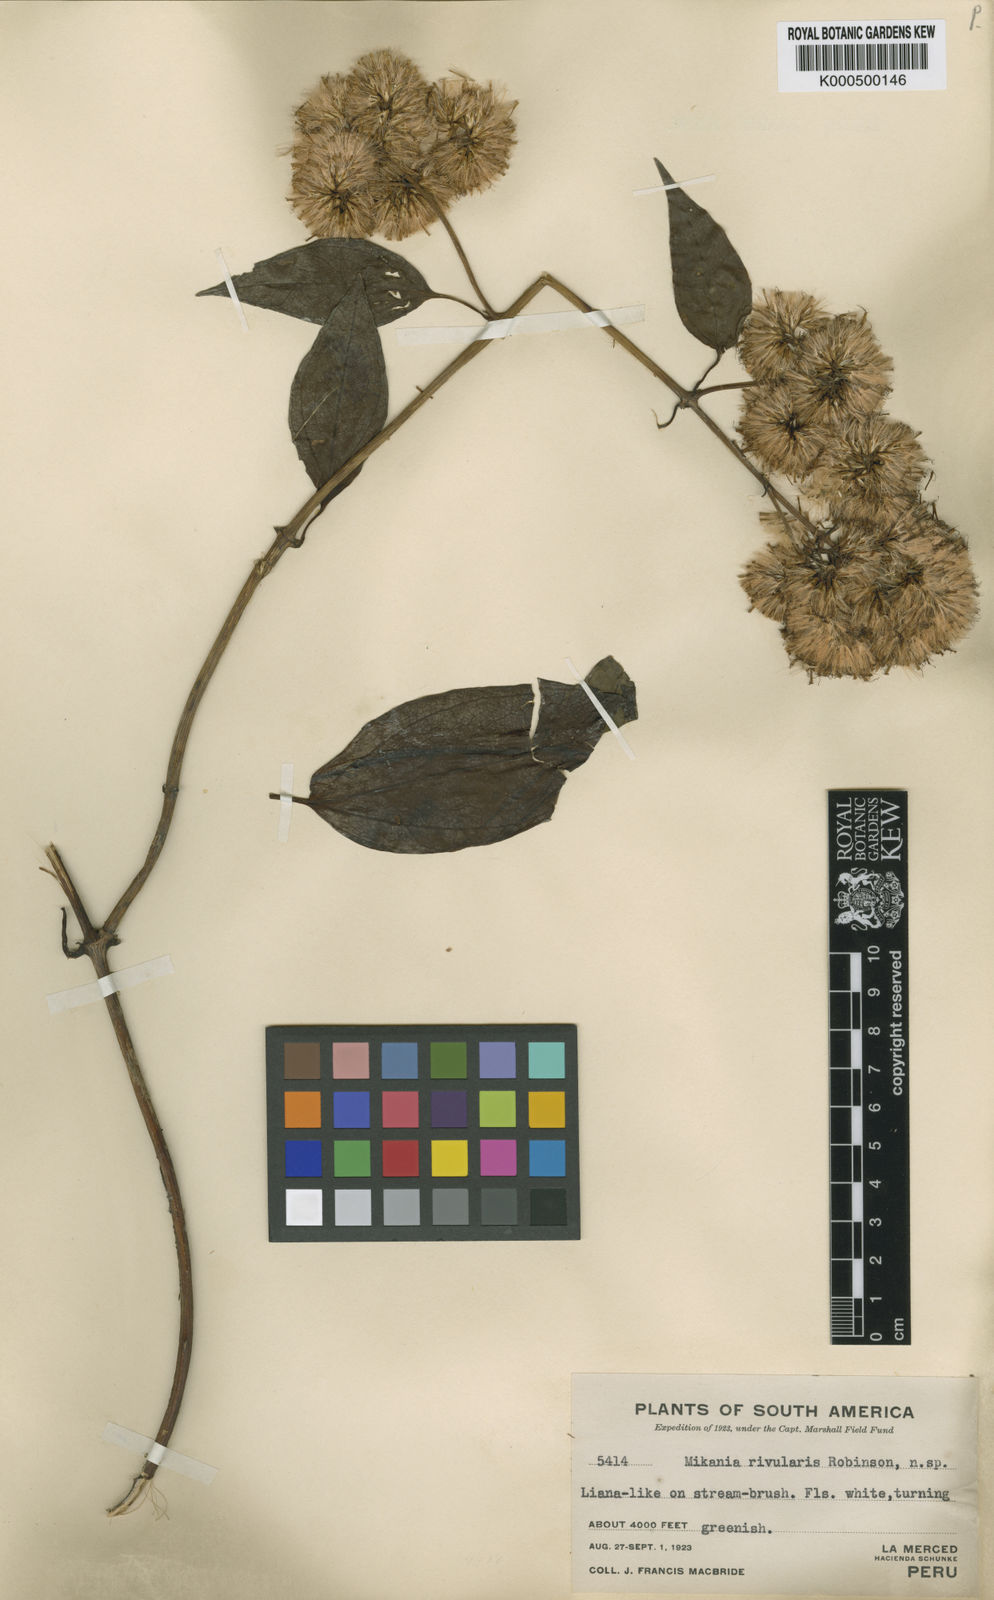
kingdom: Plantae
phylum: Tracheophyta
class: Magnoliopsida
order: Asterales
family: Asteraceae
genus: Mikania
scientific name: Mikania rivularis
